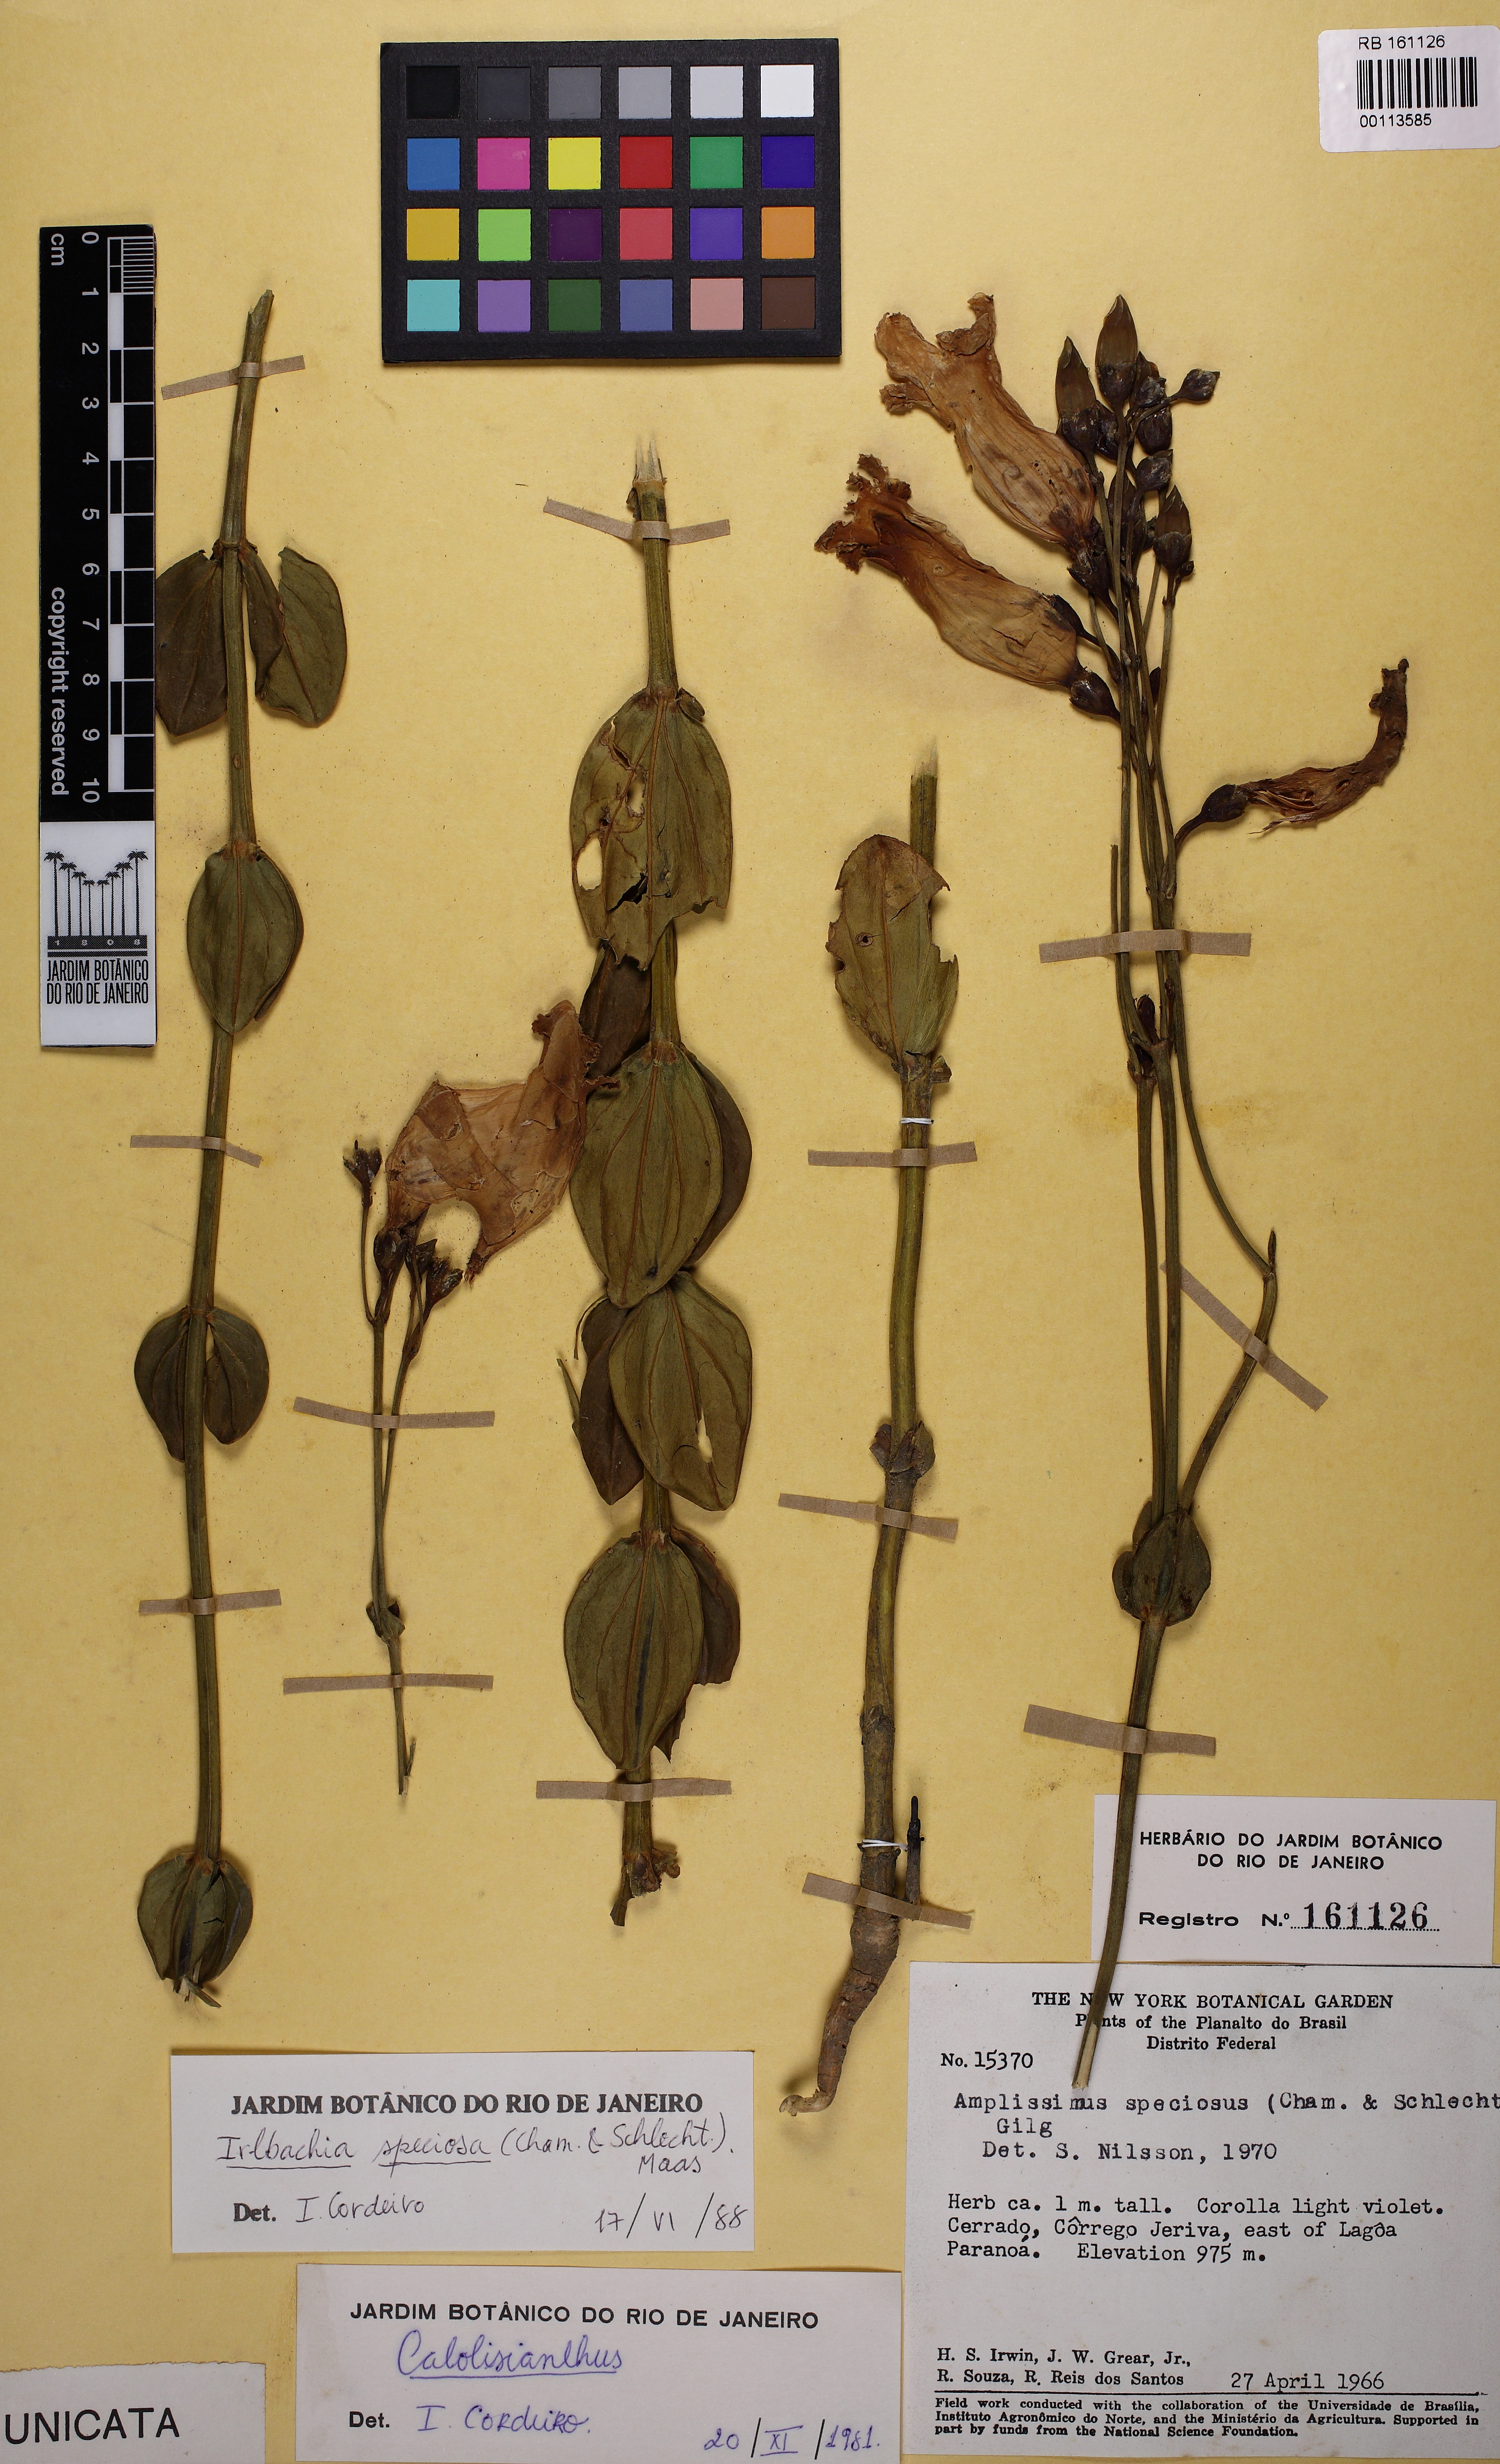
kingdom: Plantae
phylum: Tracheophyta
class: Magnoliopsida
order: Gentianales
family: Gentianaceae
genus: Calolisianthus
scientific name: Calolisianthus speciosus
